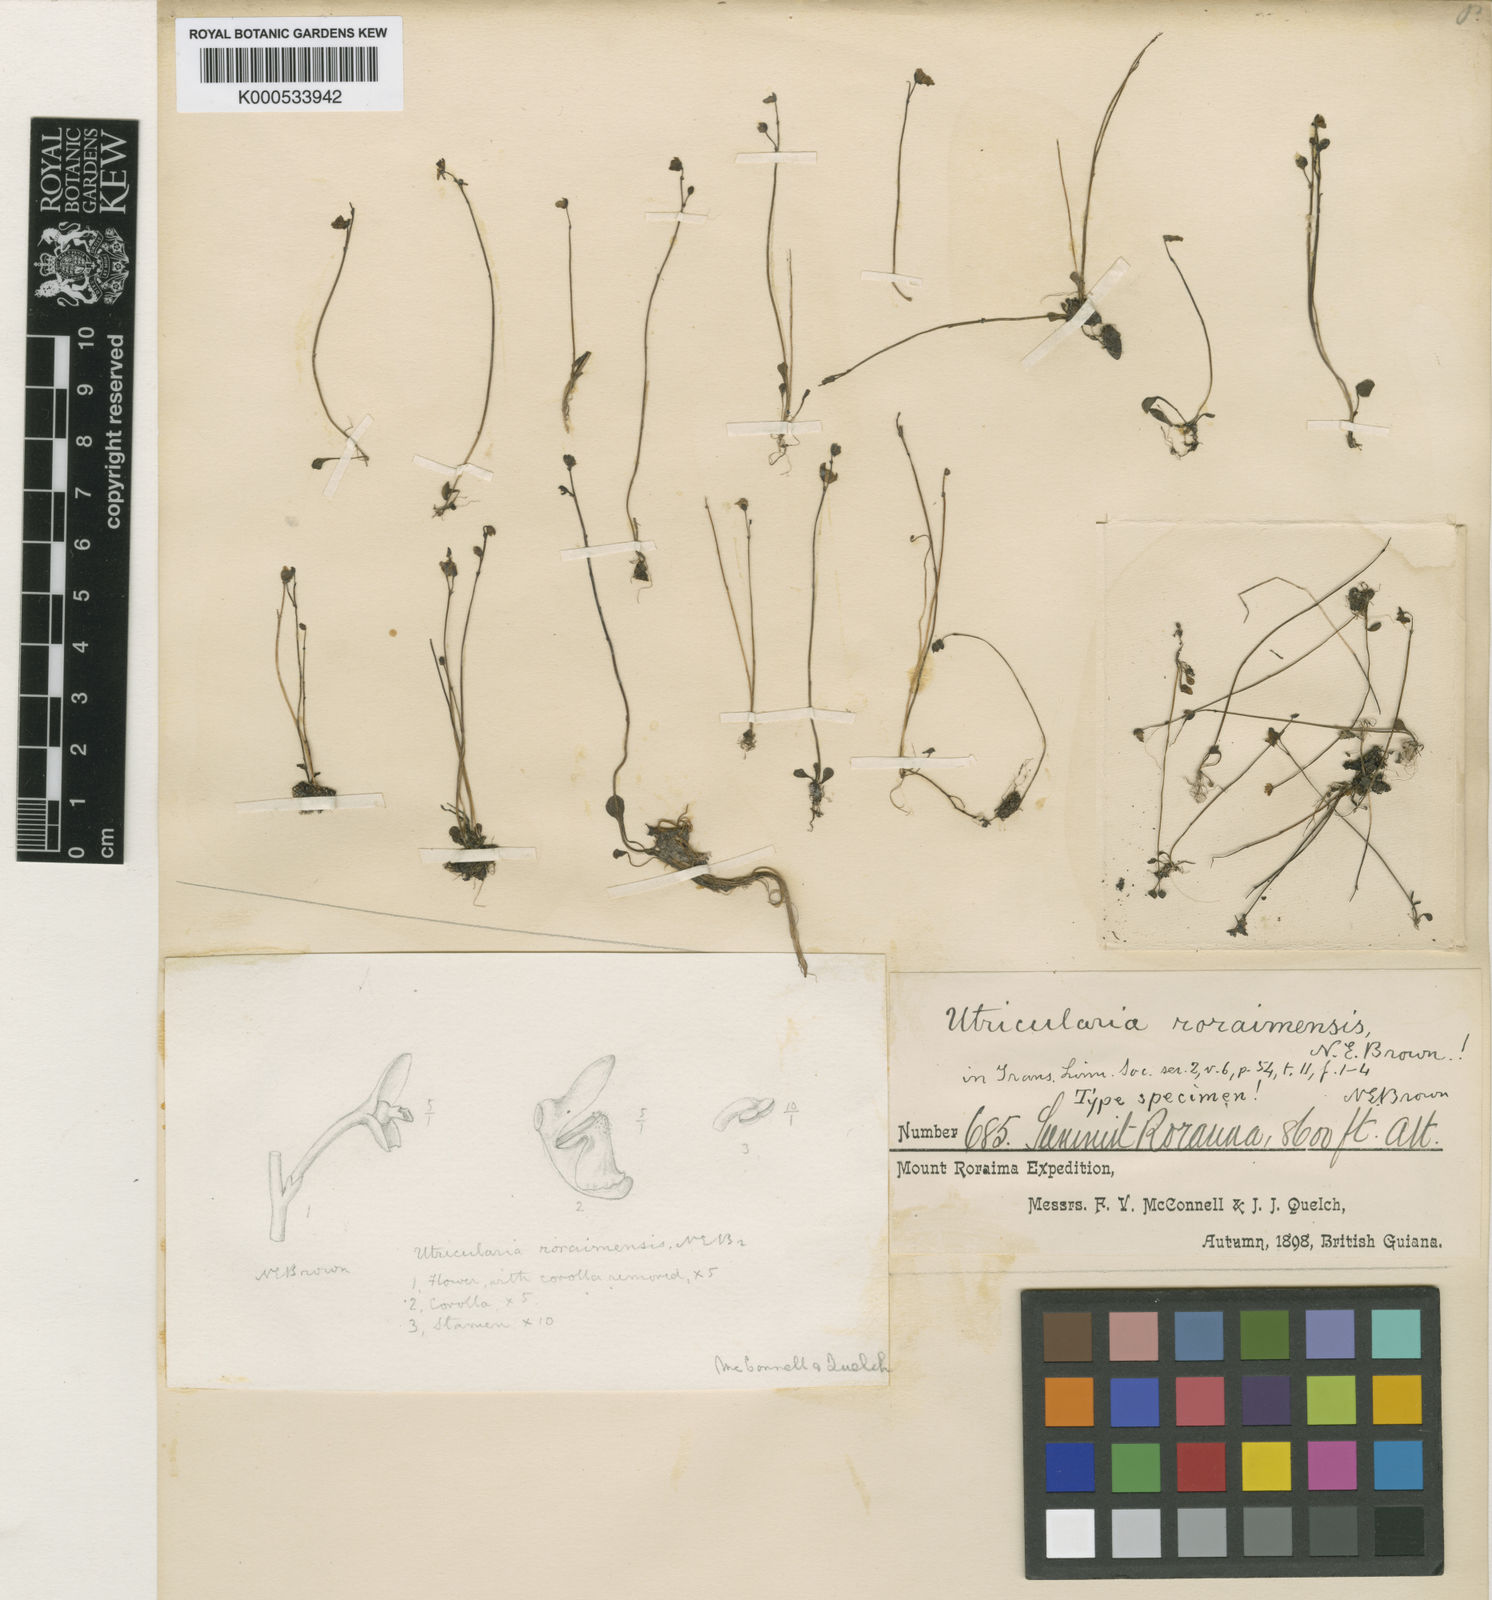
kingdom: Plantae
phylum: Tracheophyta
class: Magnoliopsida
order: Lamiales
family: Lentibulariaceae
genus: Utricularia
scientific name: Utricularia amethystina
